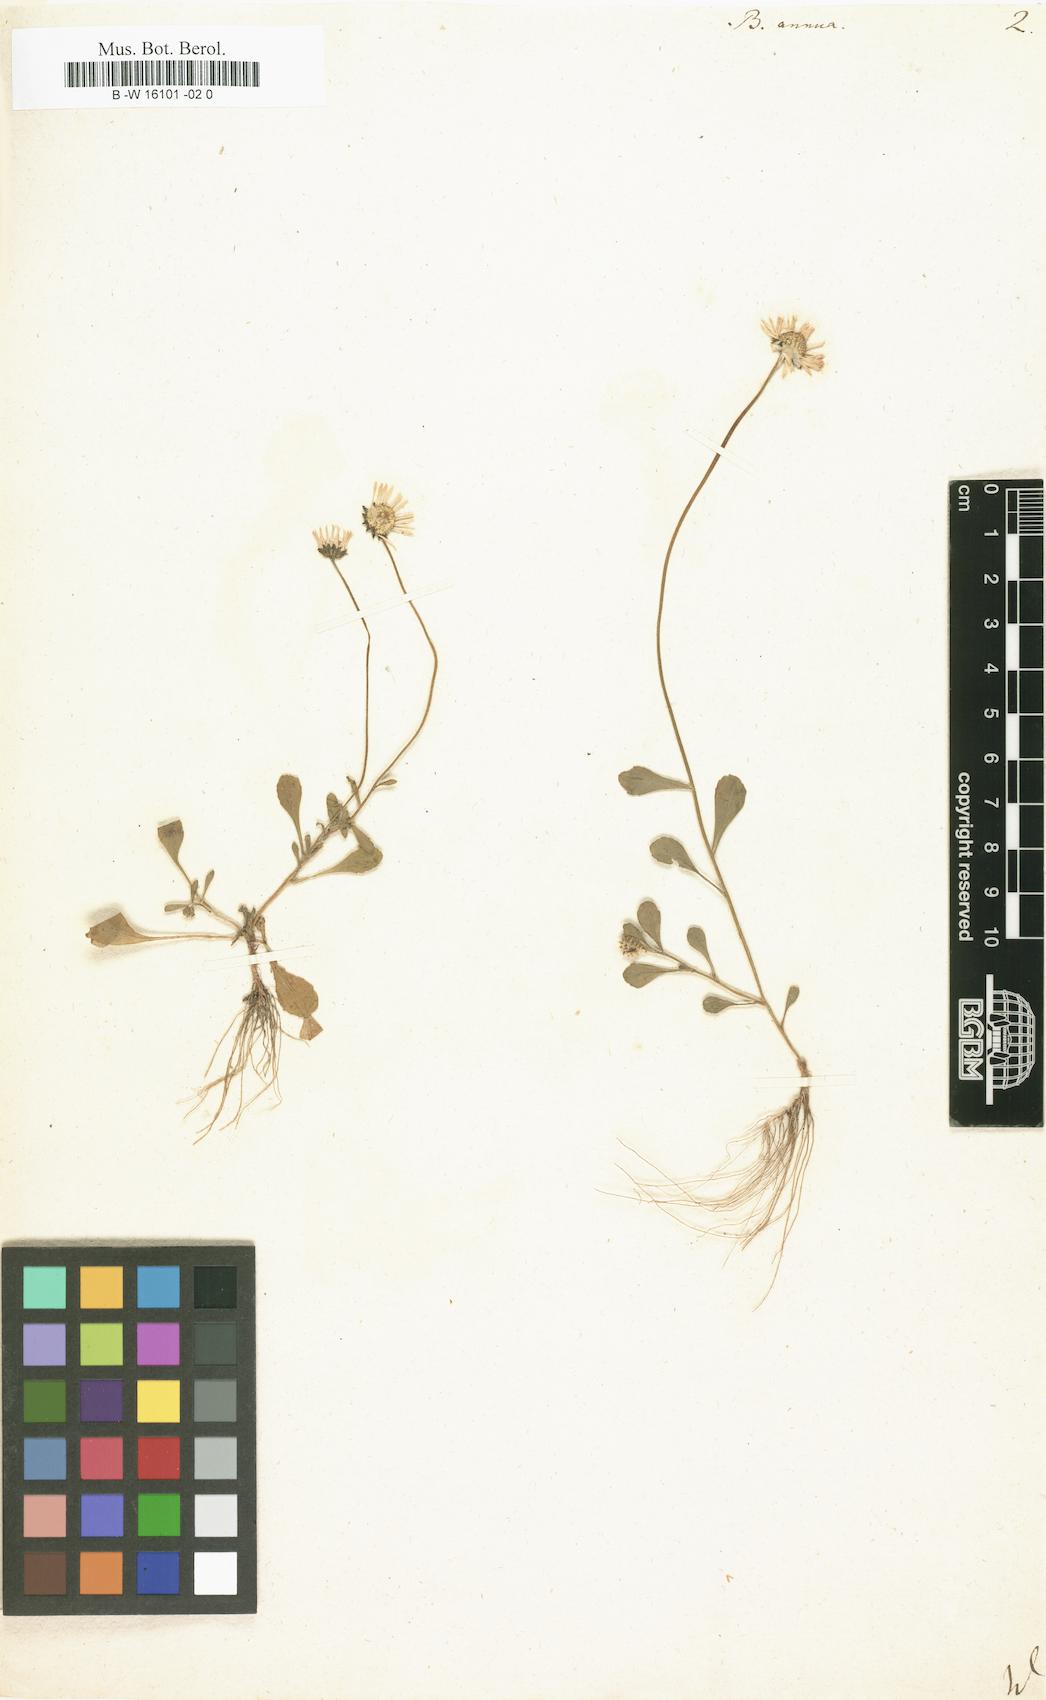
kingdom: Plantae
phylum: Tracheophyta
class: Magnoliopsida
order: Asterales
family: Asteraceae
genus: Bellis
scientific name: Bellis annua
